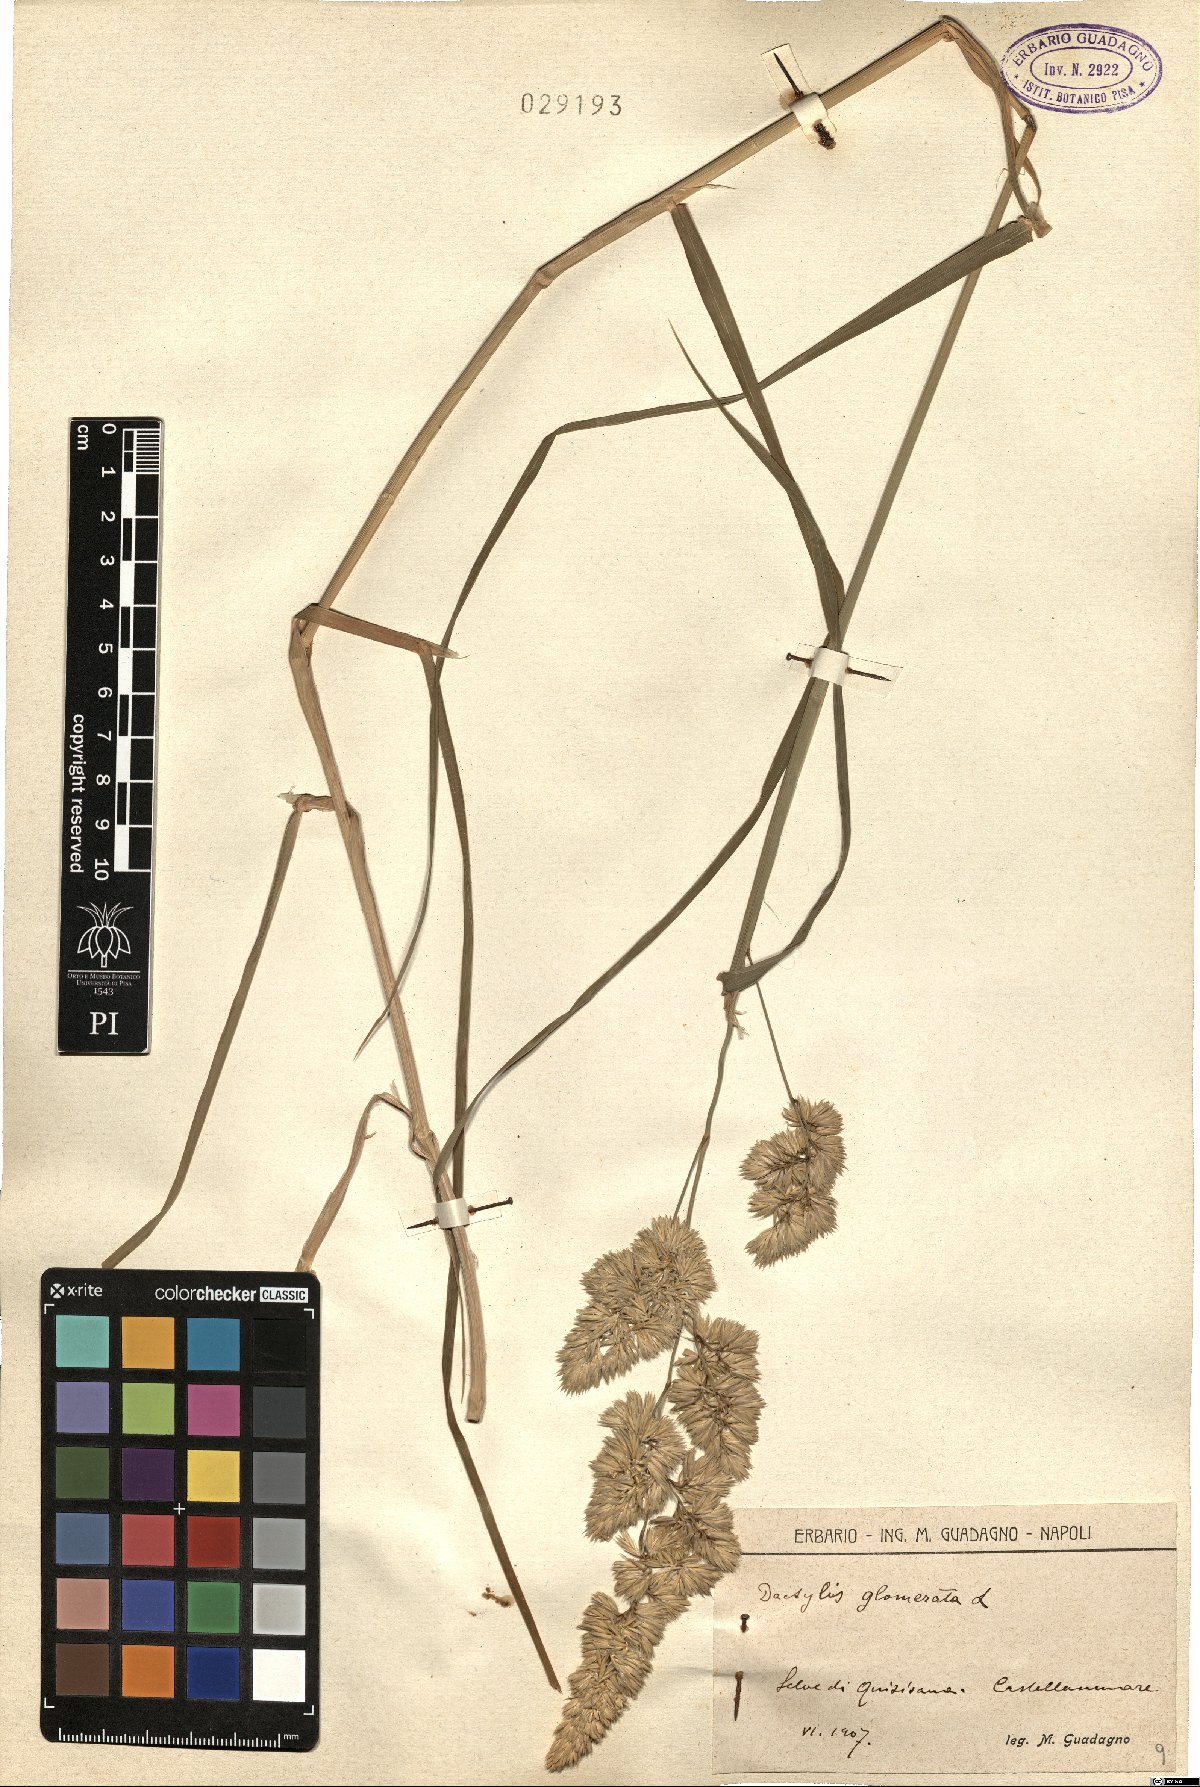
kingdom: Plantae
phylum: Tracheophyta
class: Liliopsida
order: Poales
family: Poaceae
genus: Dactylis
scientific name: Dactylis glomerata
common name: Orchardgrass
